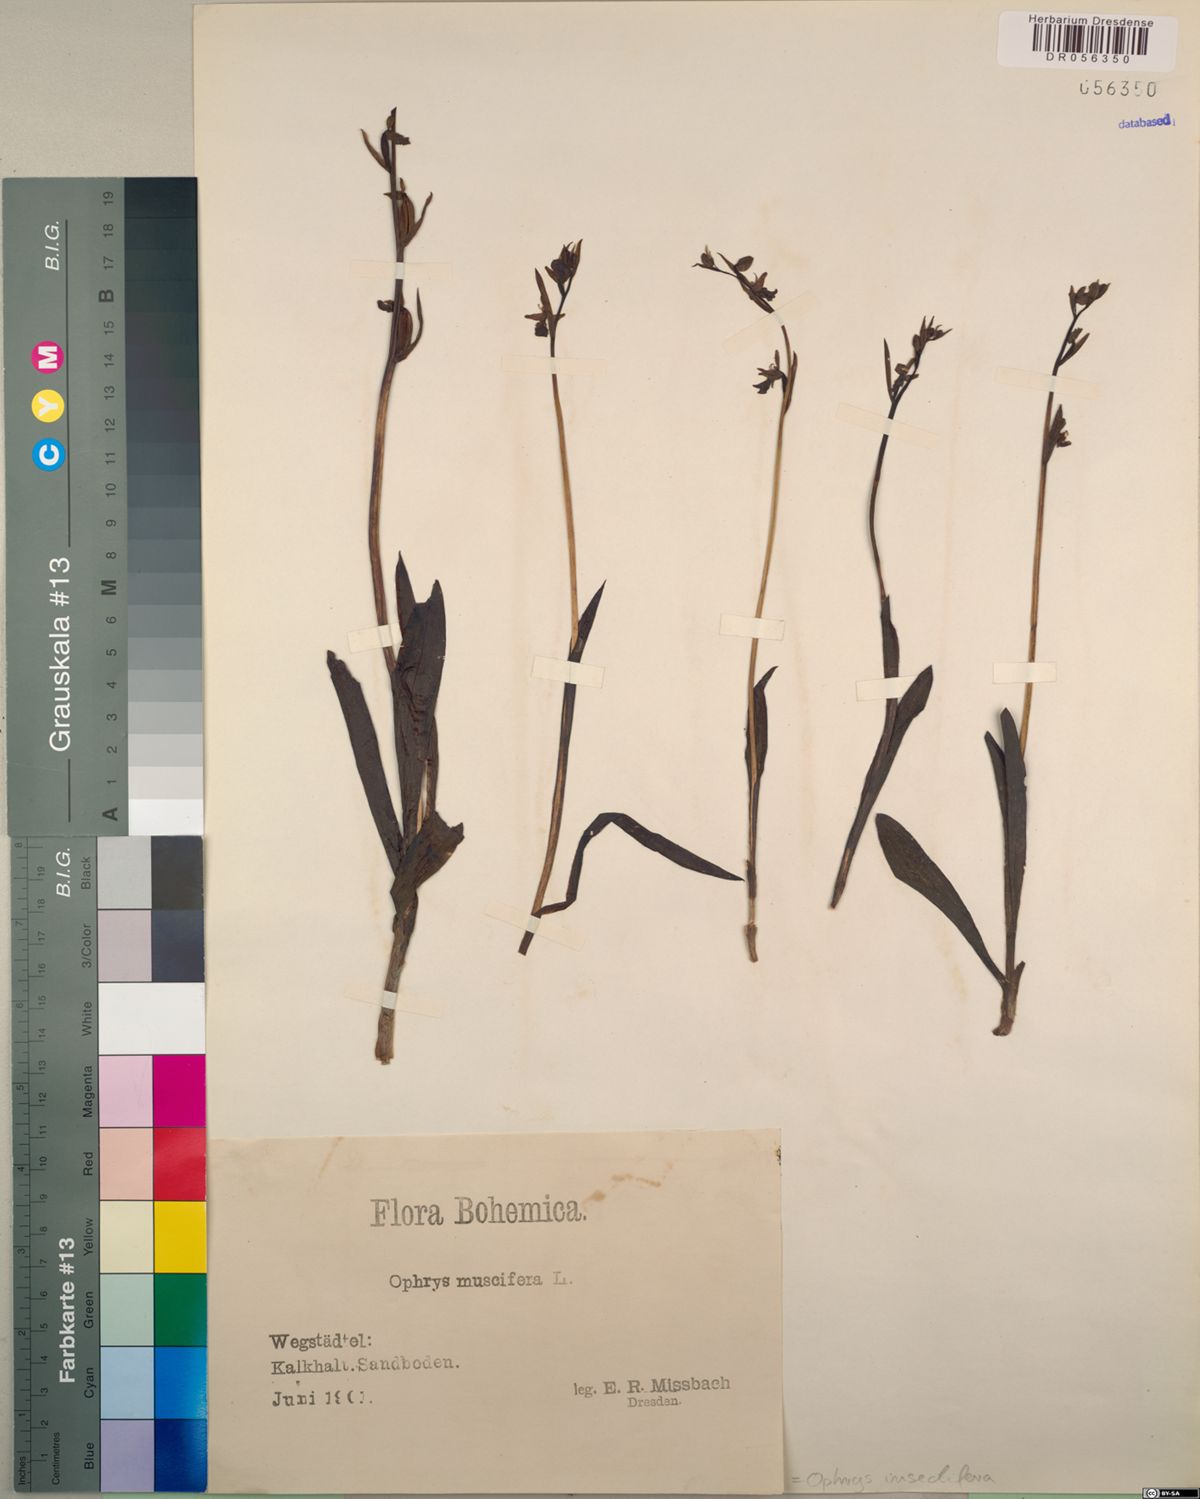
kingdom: Plantae
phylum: Tracheophyta
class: Liliopsida
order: Asparagales
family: Orchidaceae
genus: Ophrys
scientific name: Ophrys insectifera
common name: Fly orchid
